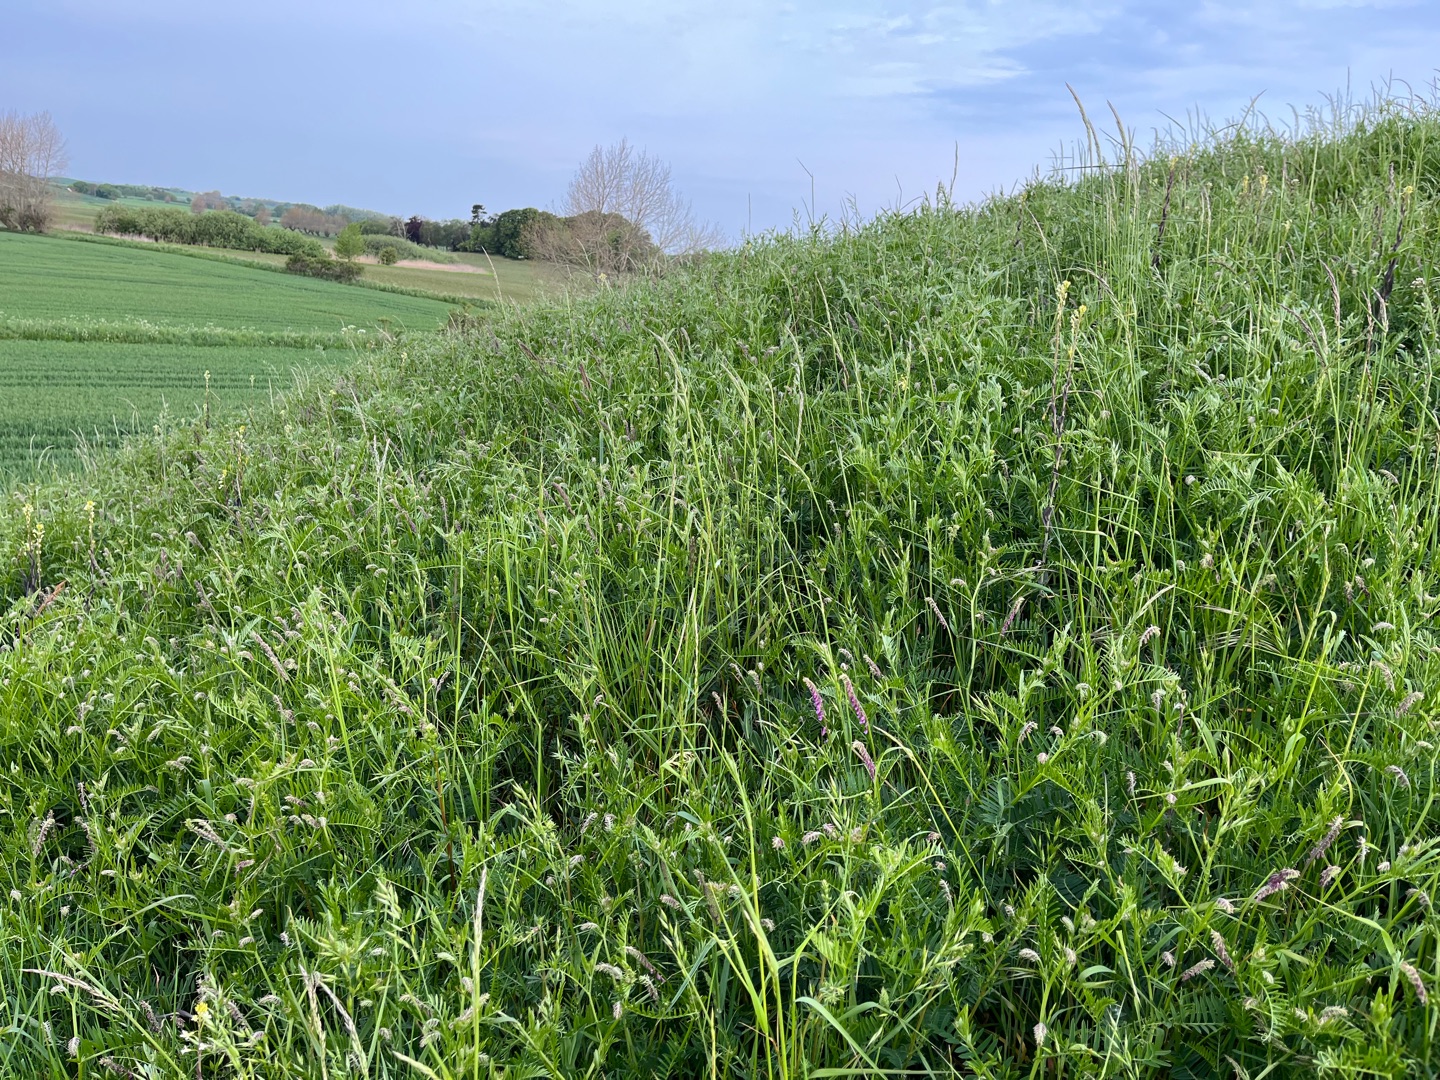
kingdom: Plantae
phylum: Tracheophyta
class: Magnoliopsida
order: Fabales
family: Fabaceae
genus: Vicia
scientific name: Vicia tenuifolia
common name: Langklaset vikke
